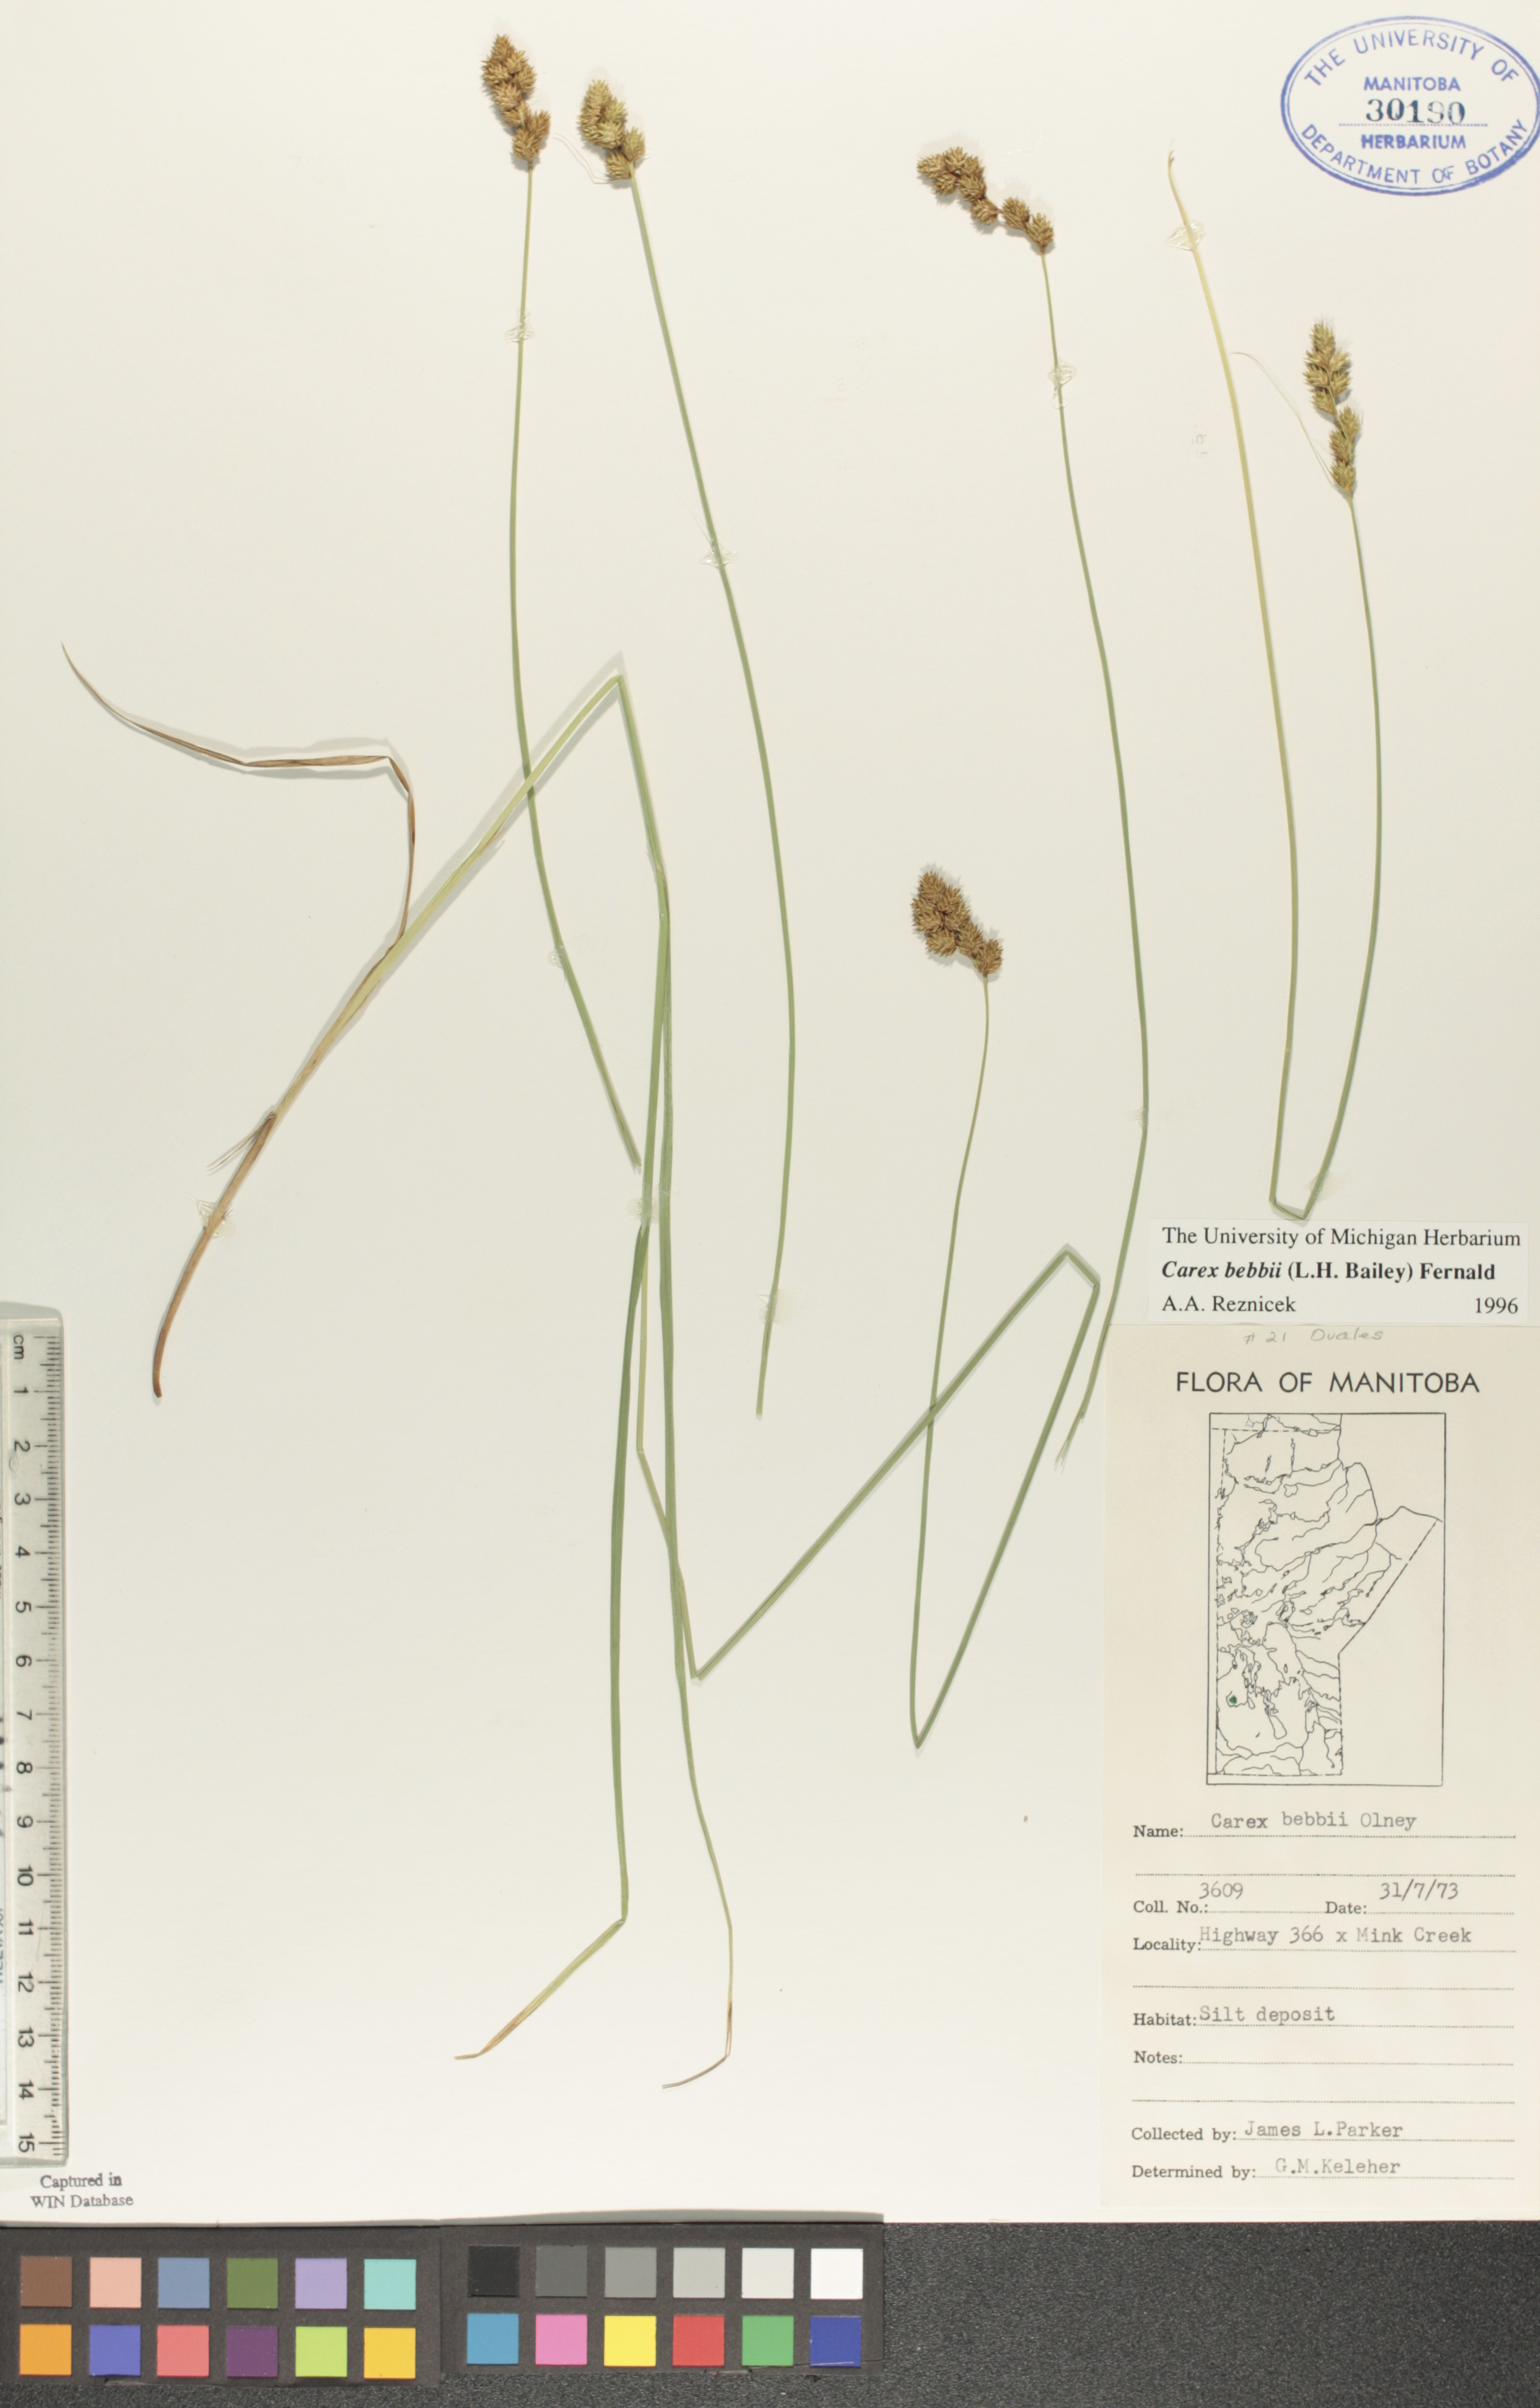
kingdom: Plantae
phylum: Tracheophyta
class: Liliopsida
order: Poales
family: Cyperaceae
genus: Carex
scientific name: Carex bebbii
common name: Bebb's sedge
